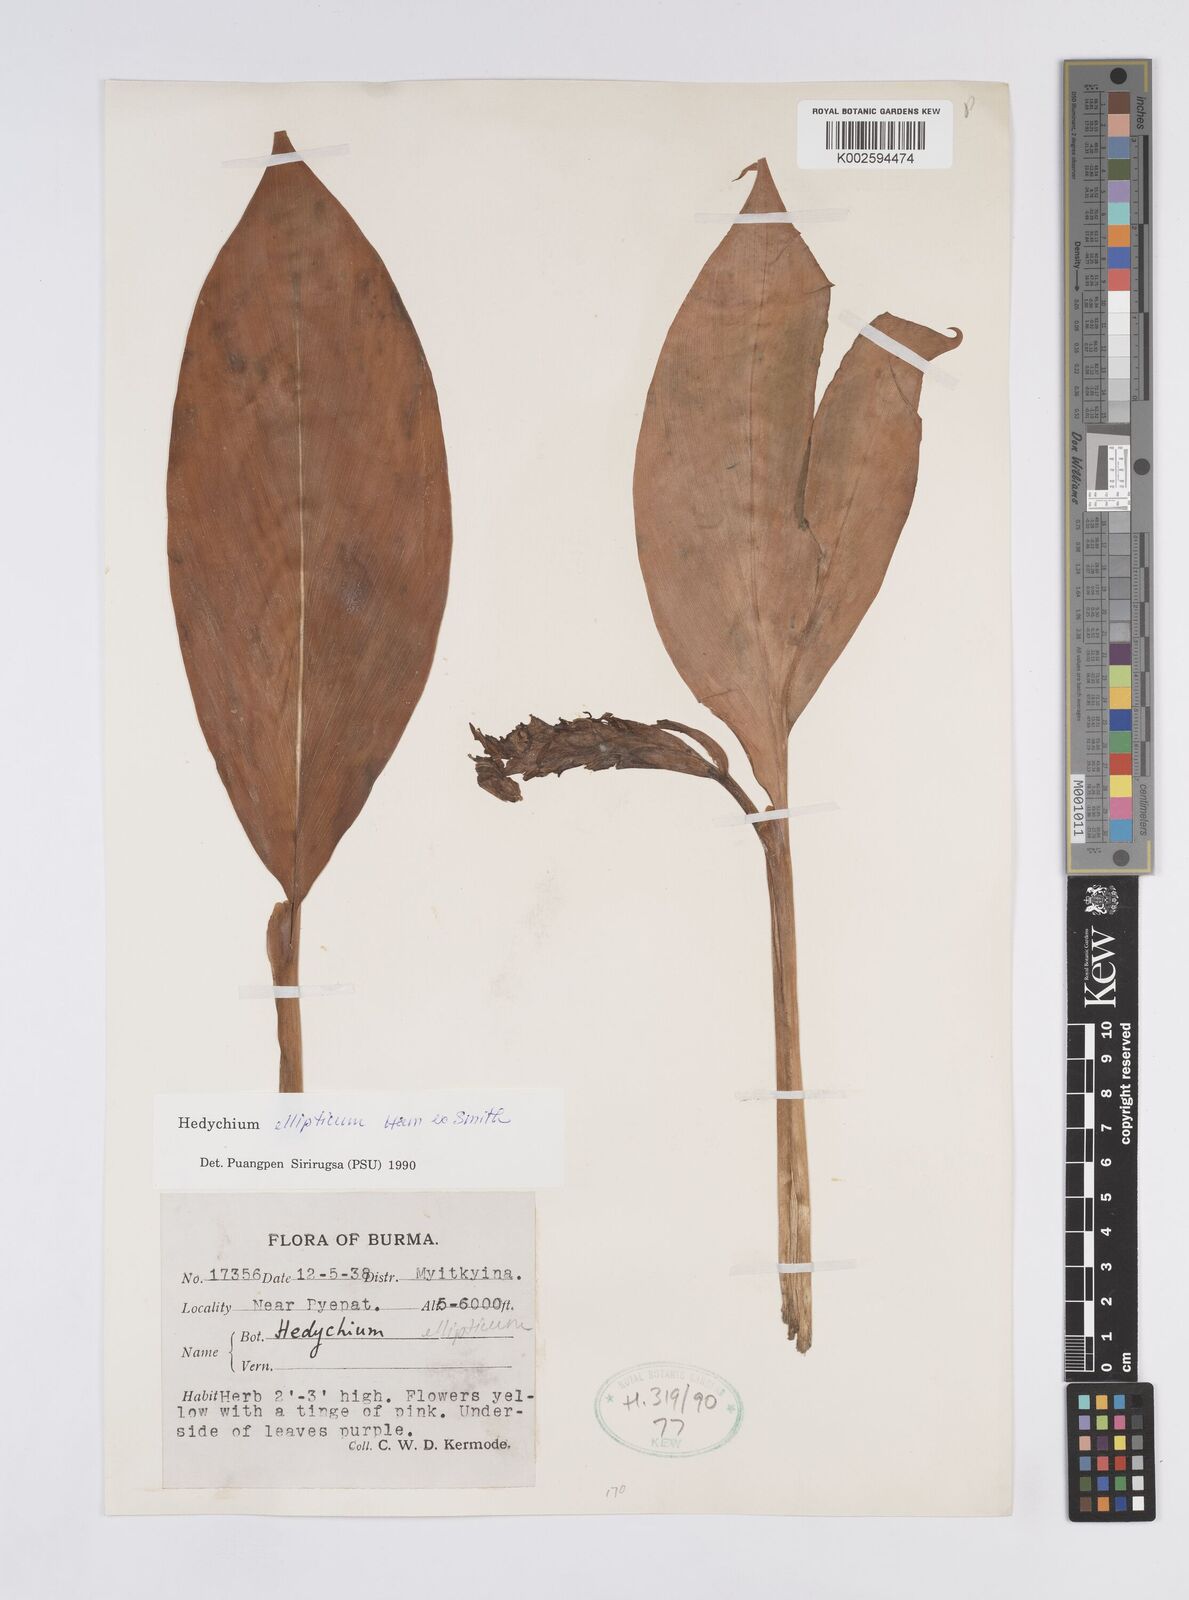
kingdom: Plantae
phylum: Tracheophyta
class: Liliopsida
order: Zingiberales
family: Zingiberaceae
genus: Hedychium
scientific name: Hedychium ellipticum
